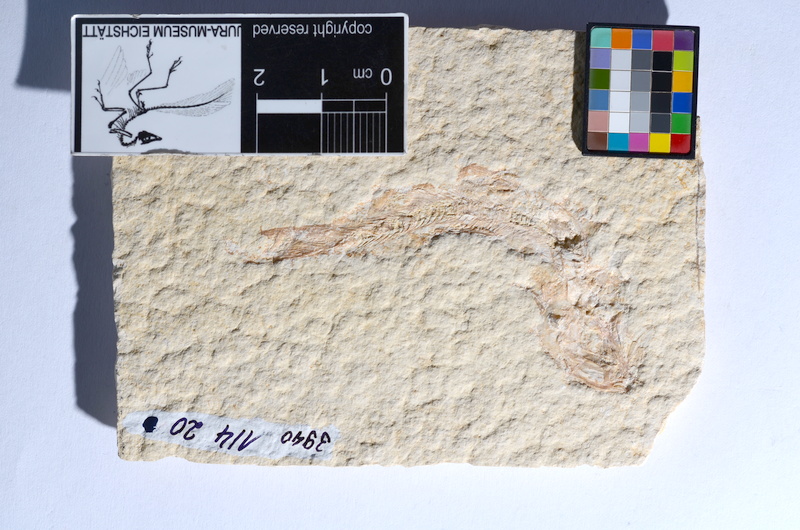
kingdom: Animalia
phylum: Chordata
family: Ascalaboidae
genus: Tharsis
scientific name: Tharsis dubius
